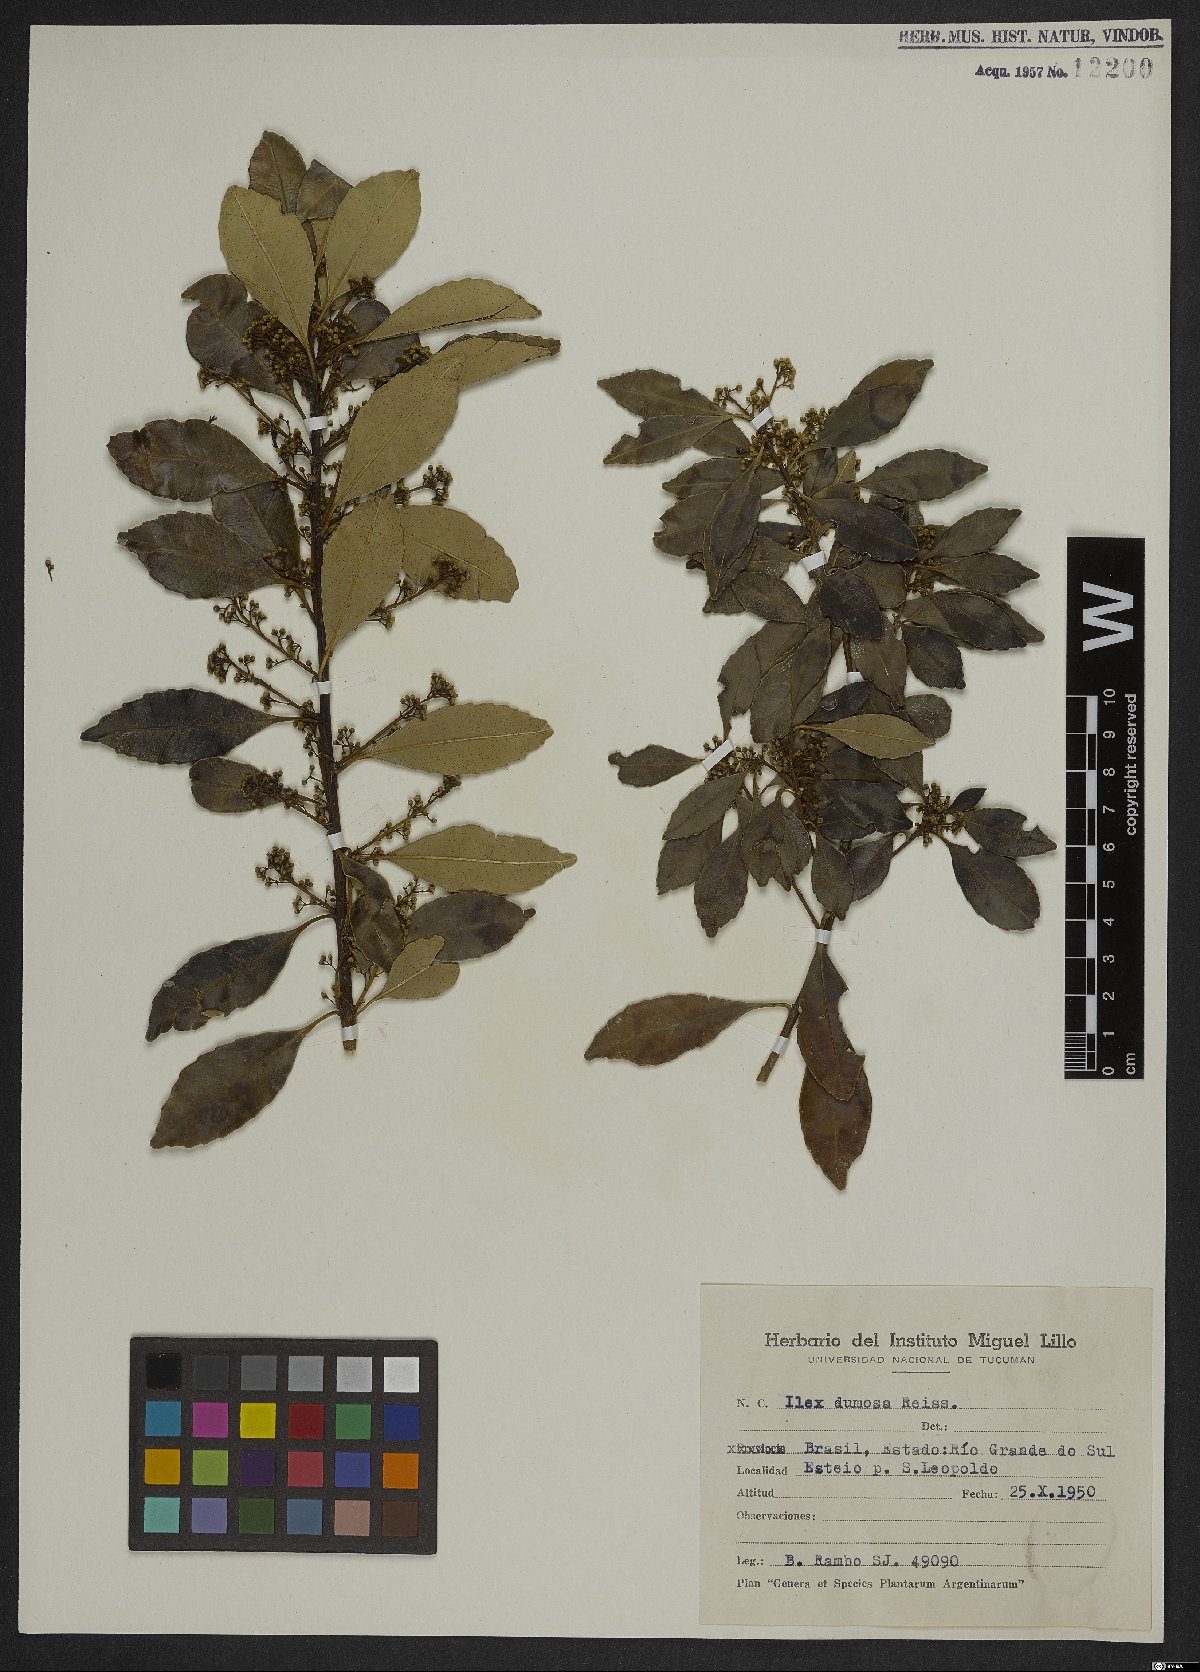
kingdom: Plantae
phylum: Tracheophyta
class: Magnoliopsida
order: Aquifoliales
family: Aquifoliaceae
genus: Ilex
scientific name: Ilex dumosa
